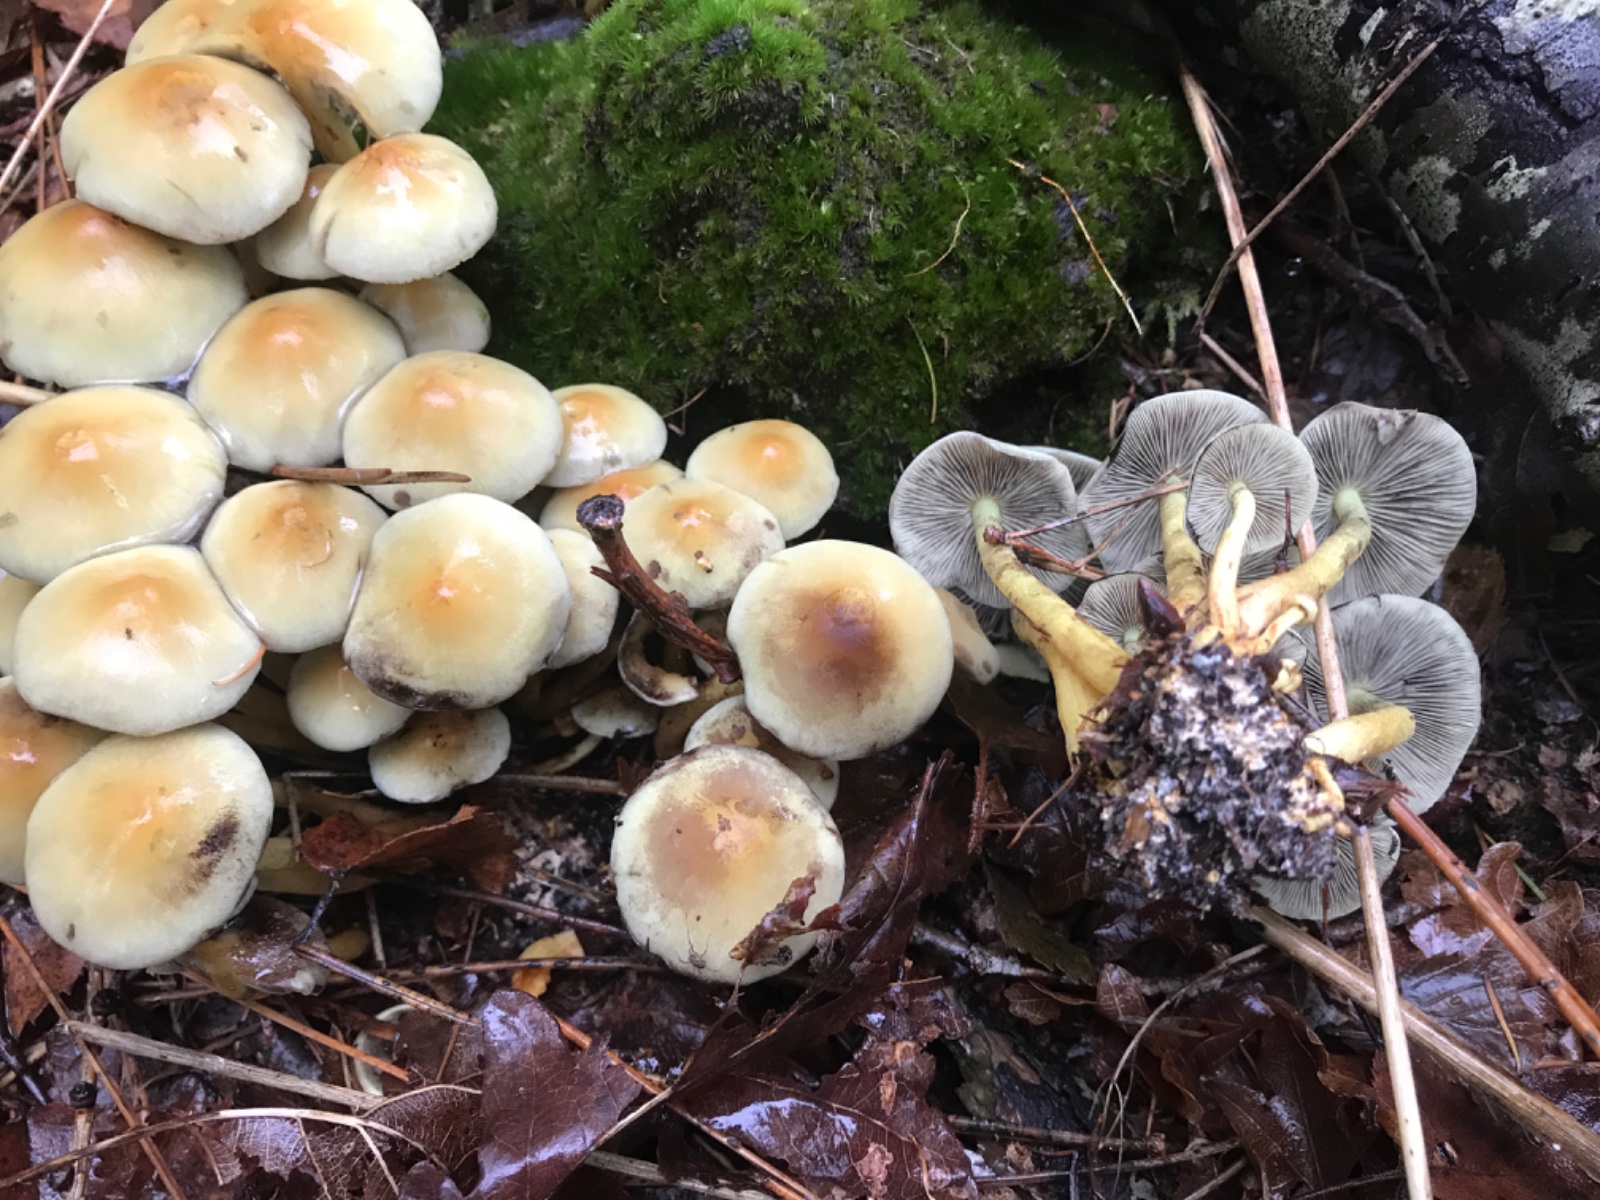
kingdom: Fungi
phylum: Basidiomycota
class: Agaricomycetes
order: Agaricales
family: Strophariaceae
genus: Hypholoma
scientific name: Hypholoma fasciculare
